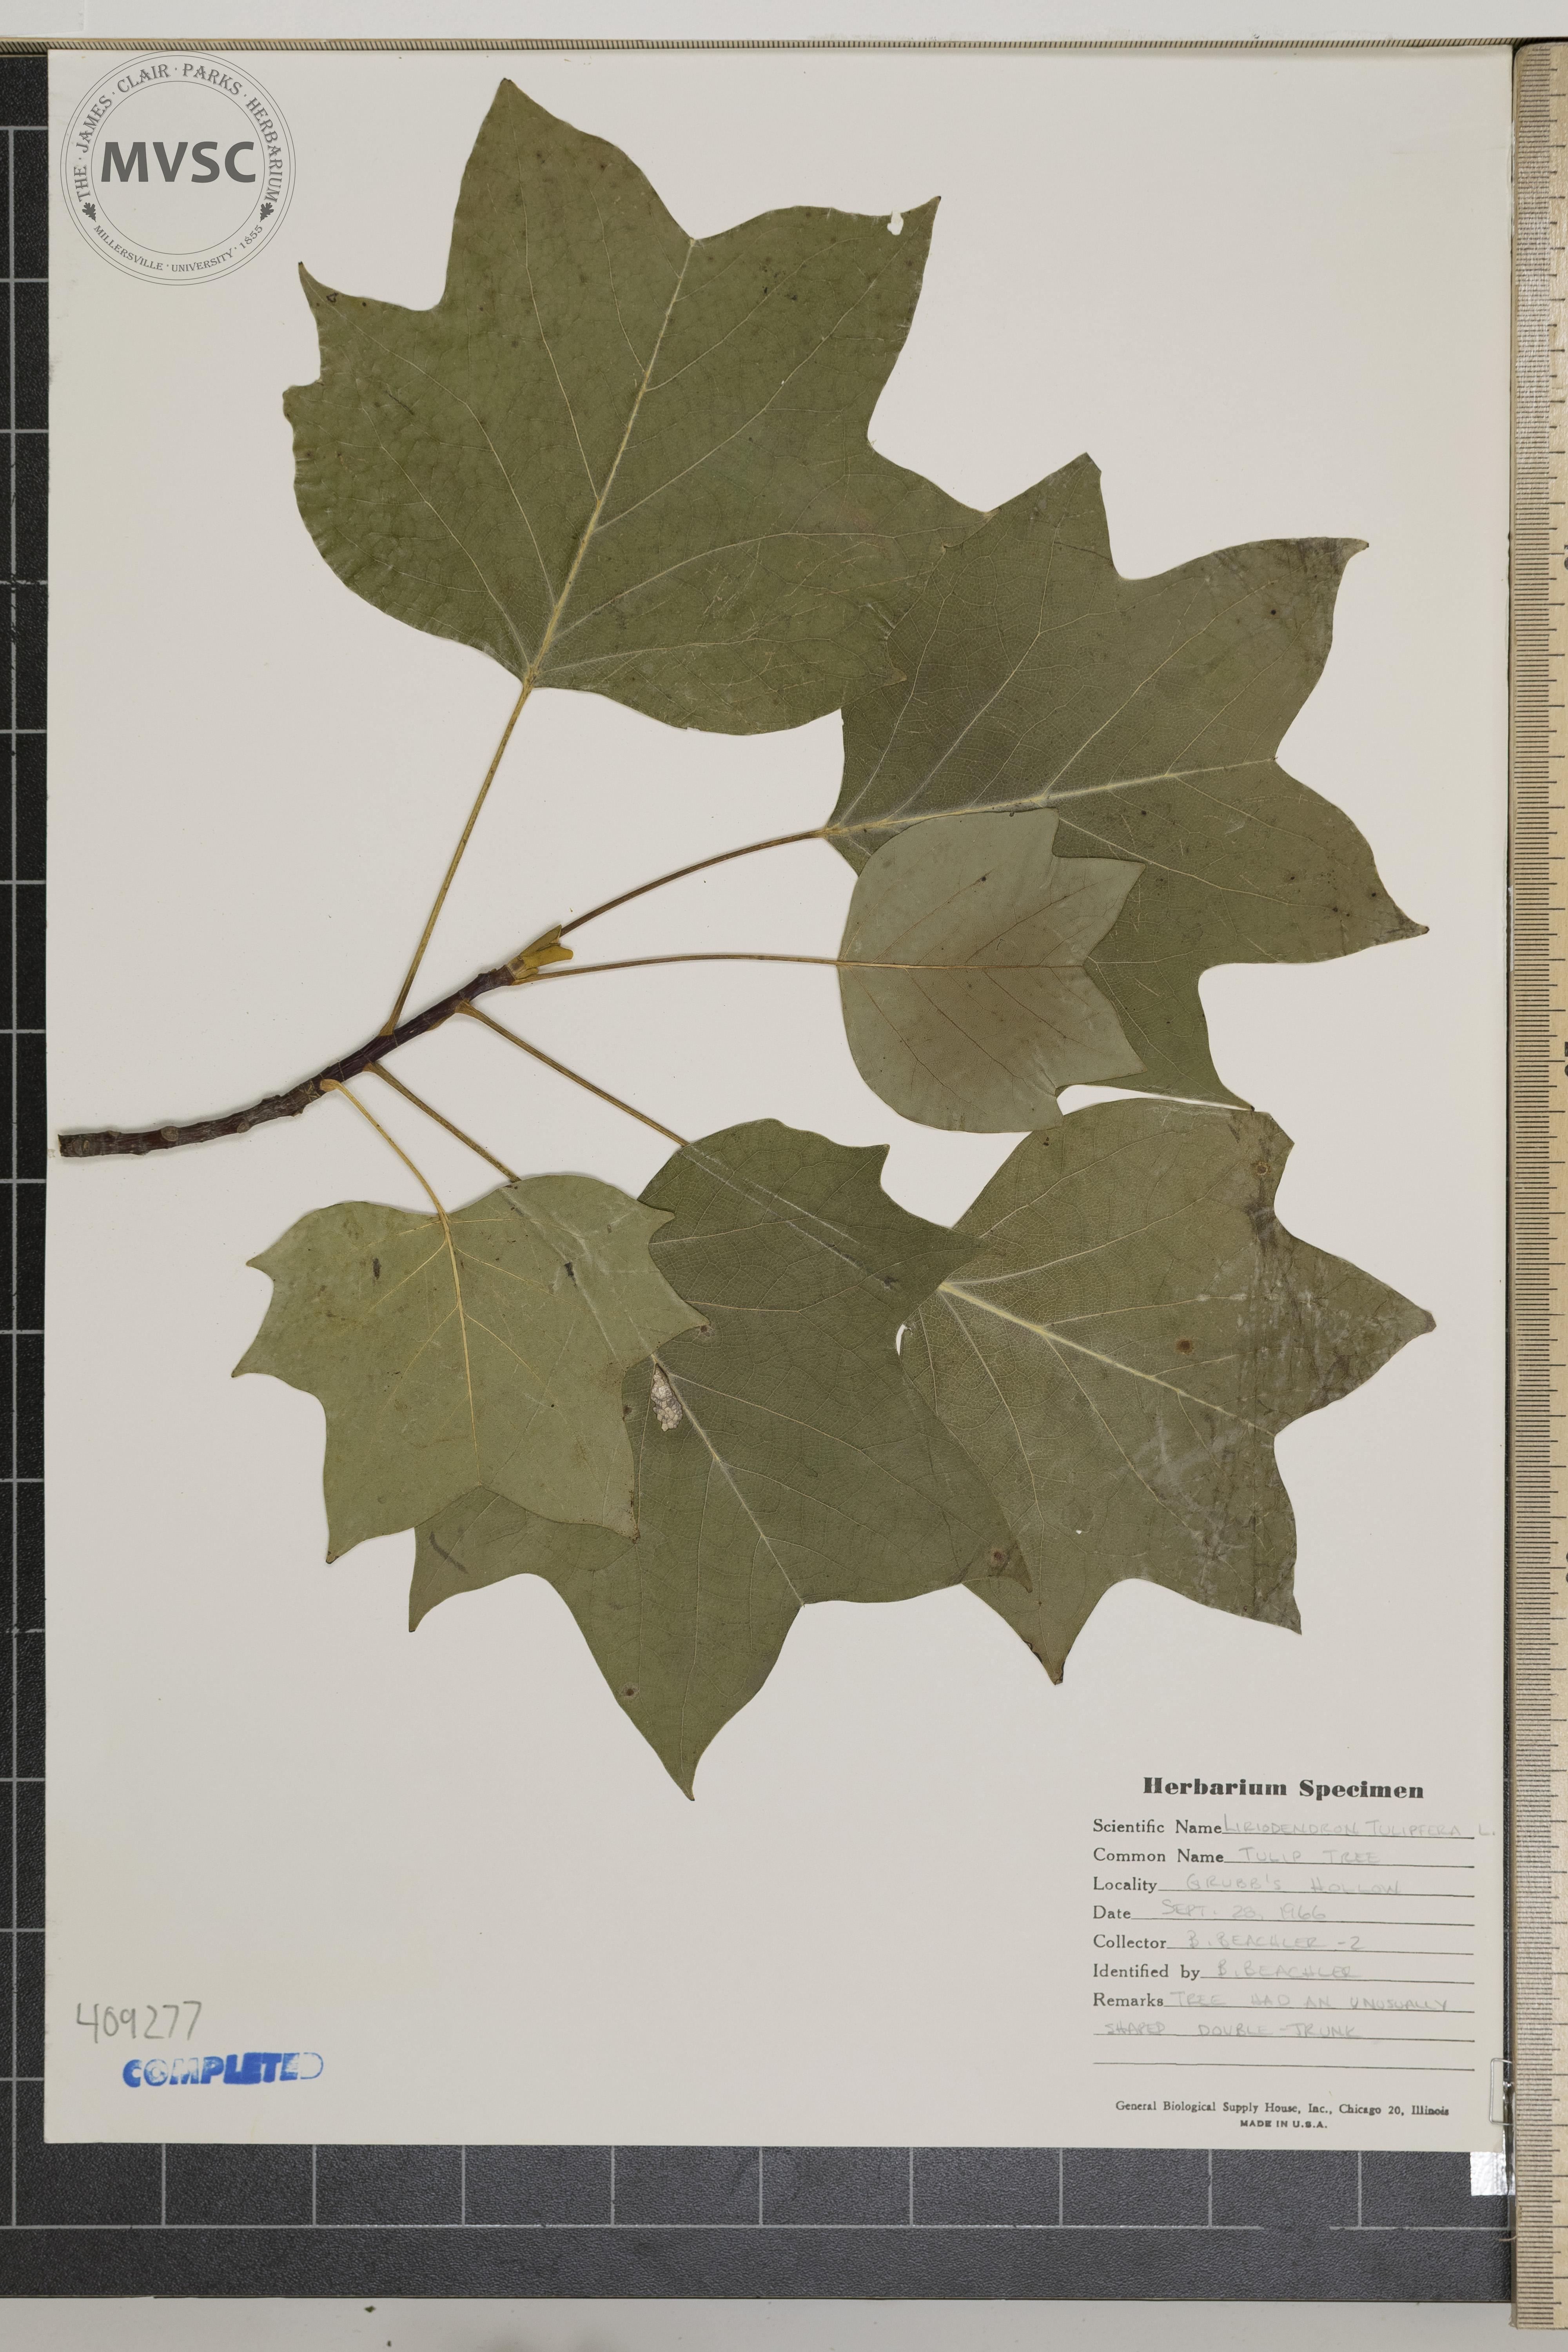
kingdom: Plantae
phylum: Tracheophyta
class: Magnoliopsida
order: Magnoliales
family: Magnoliaceae
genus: Liriodendron
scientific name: Liriodendron tulipifera
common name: Tulip tree
